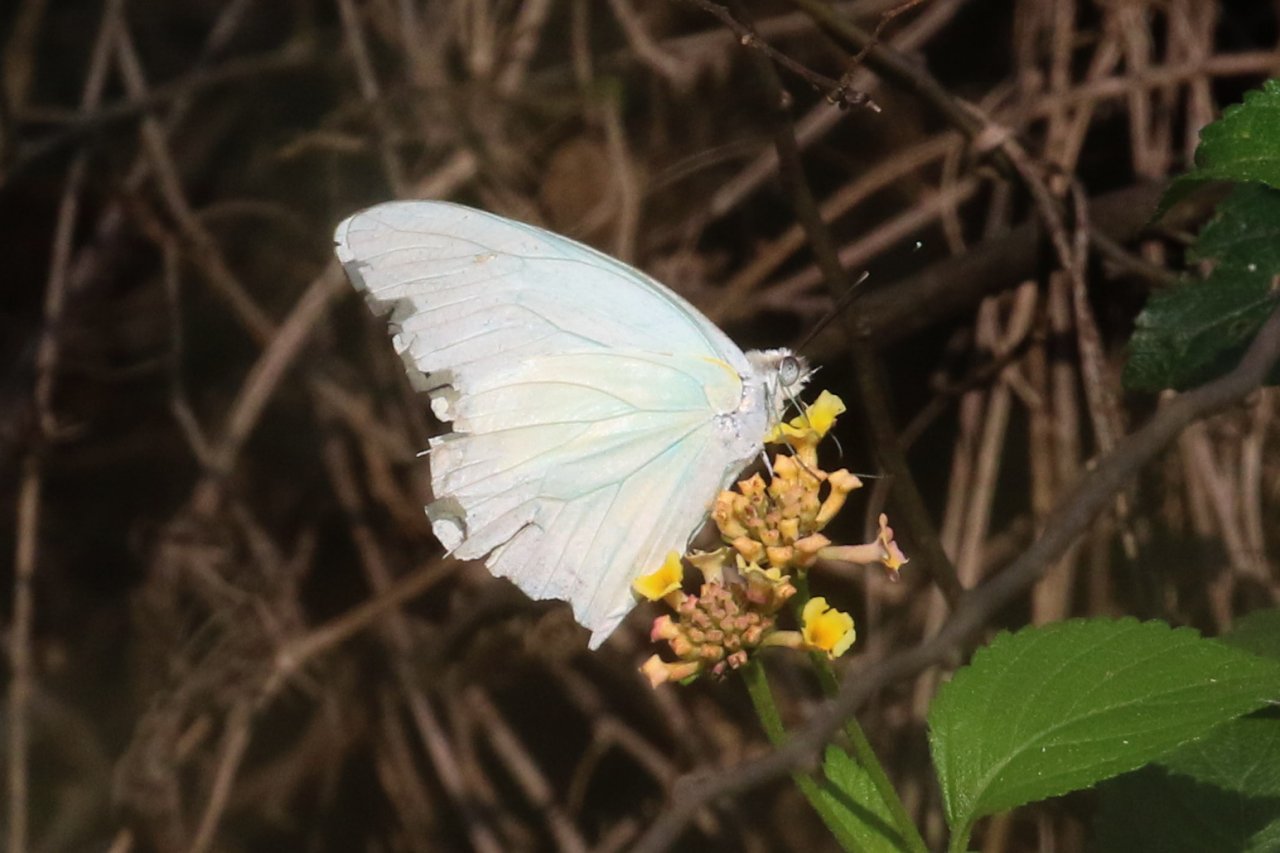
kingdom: Animalia
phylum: Arthropoda
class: Insecta
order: Lepidoptera
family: Pieridae
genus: Glutophrissa
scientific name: Glutophrissa drusilla
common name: Florida White
